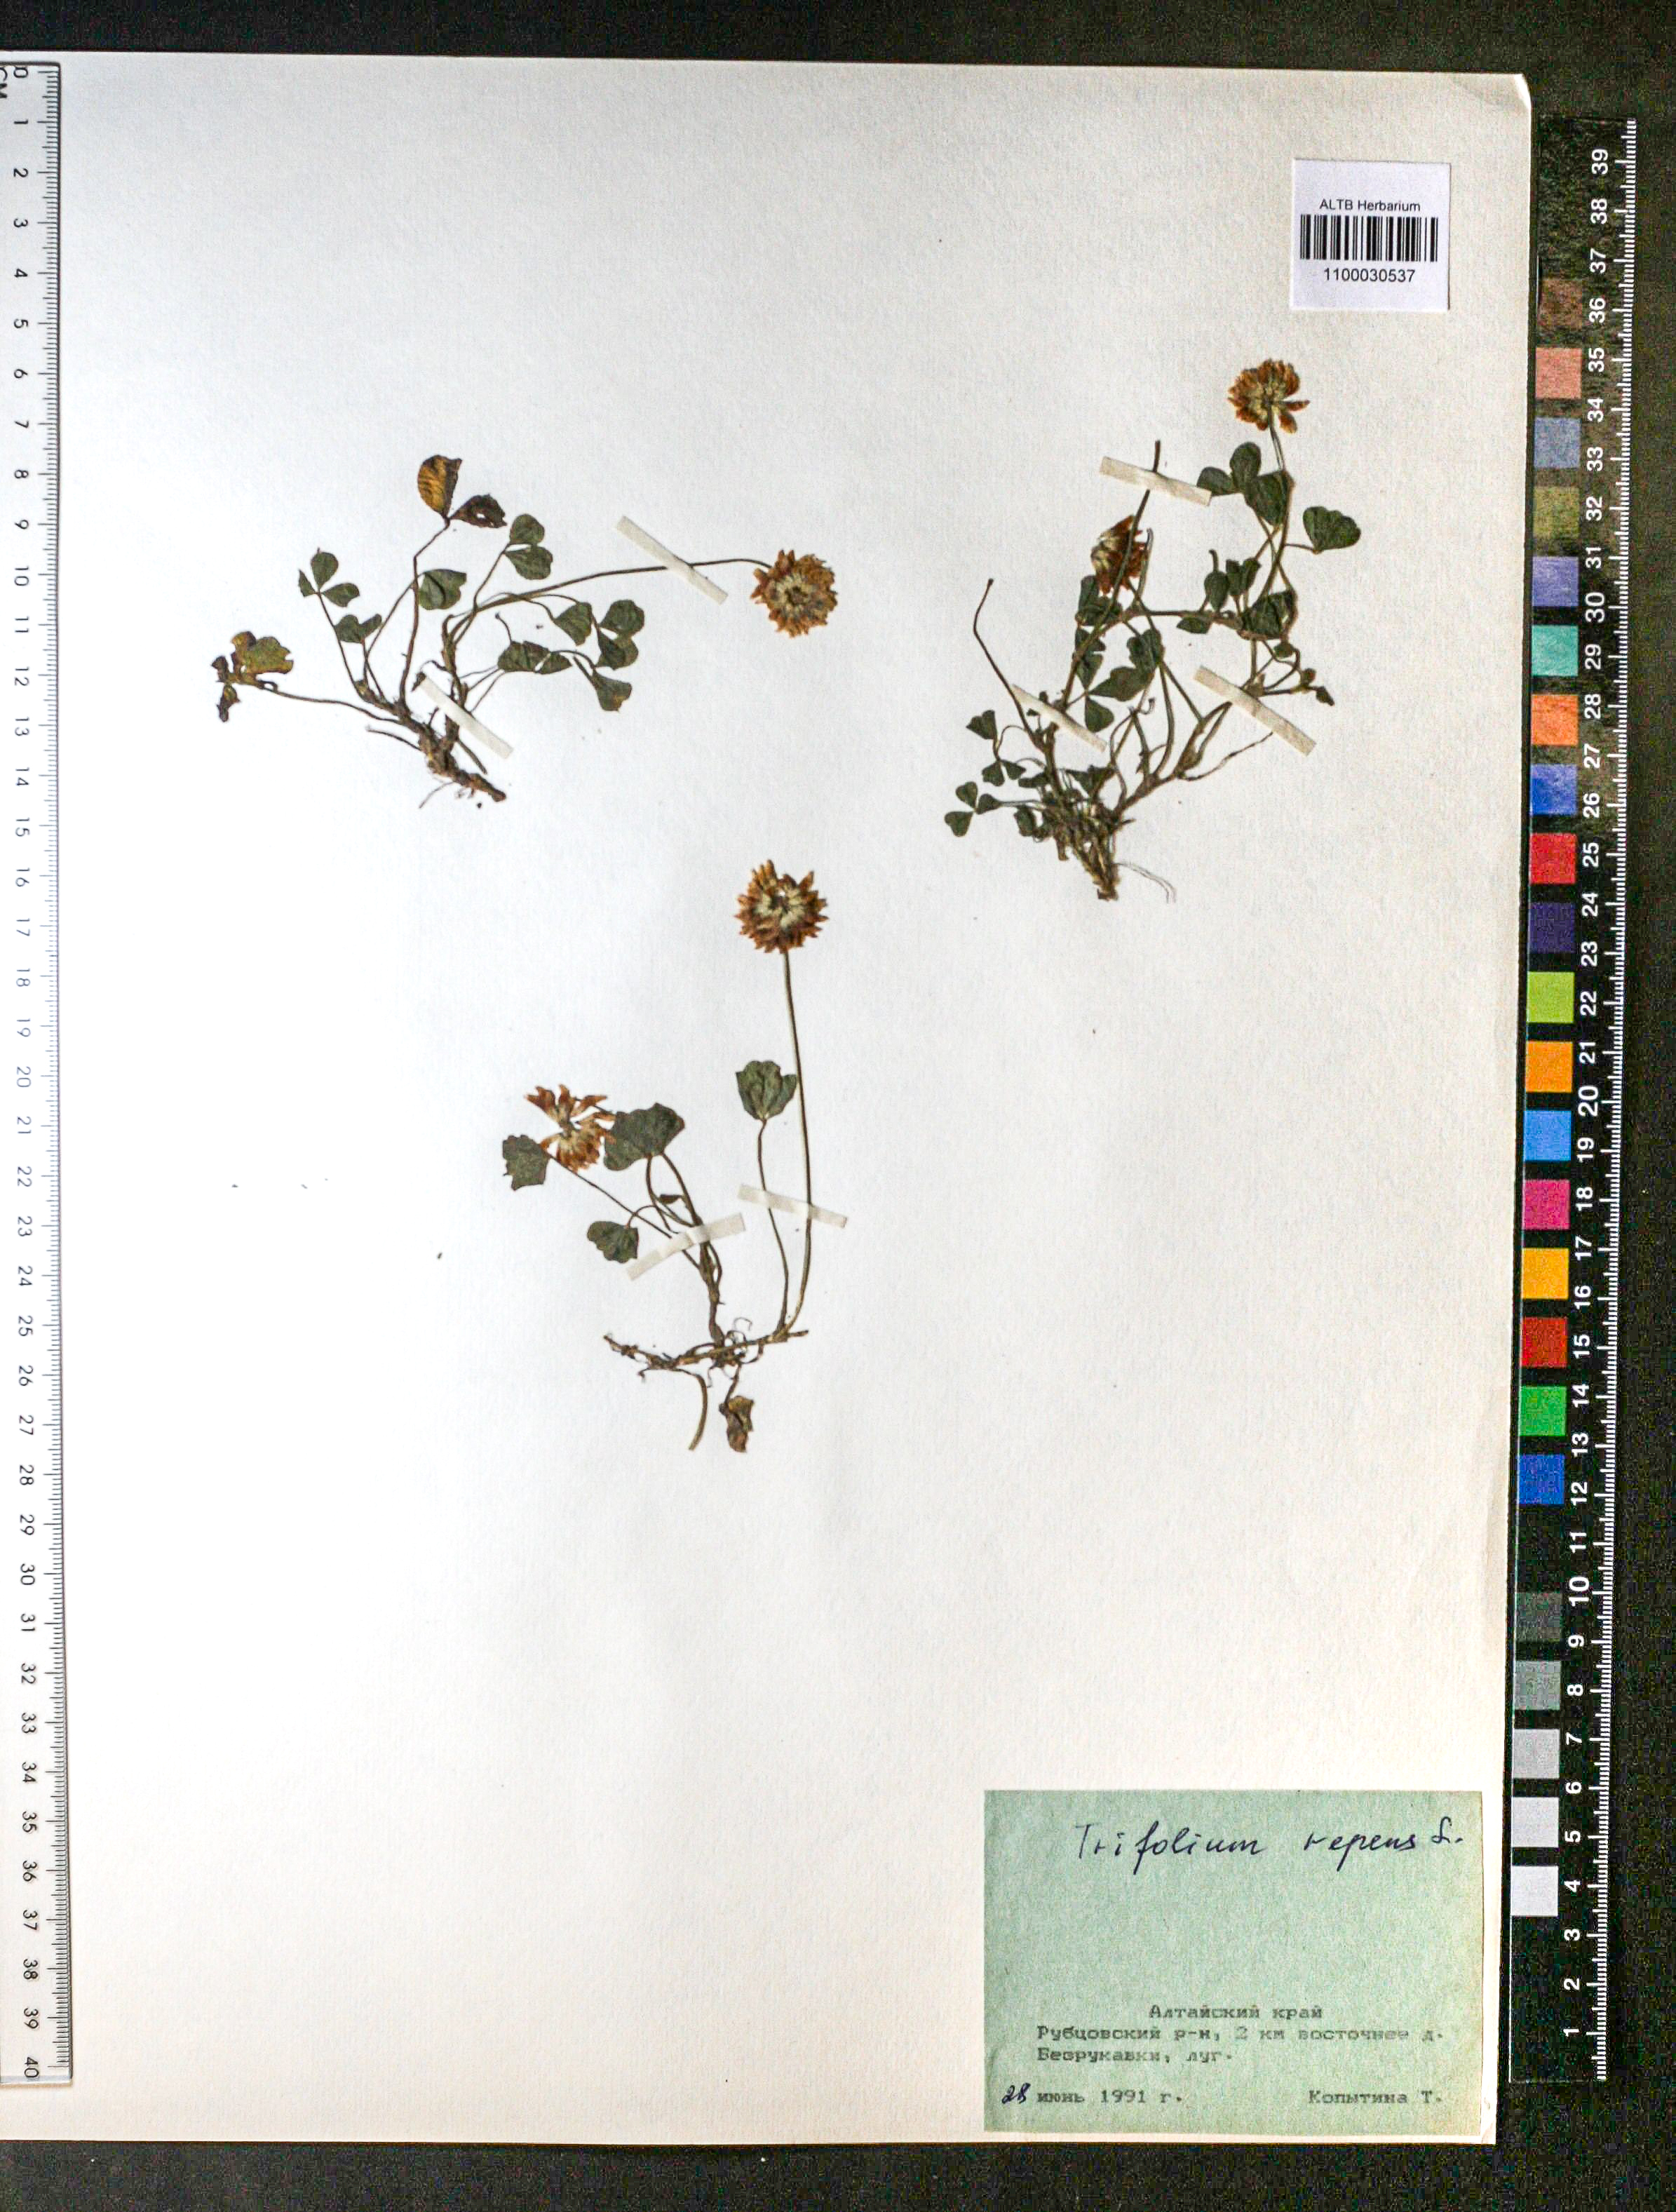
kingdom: Plantae
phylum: Tracheophyta
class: Magnoliopsida
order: Fabales
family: Fabaceae
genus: Trifolium
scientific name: Trifolium repens
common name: White clover
